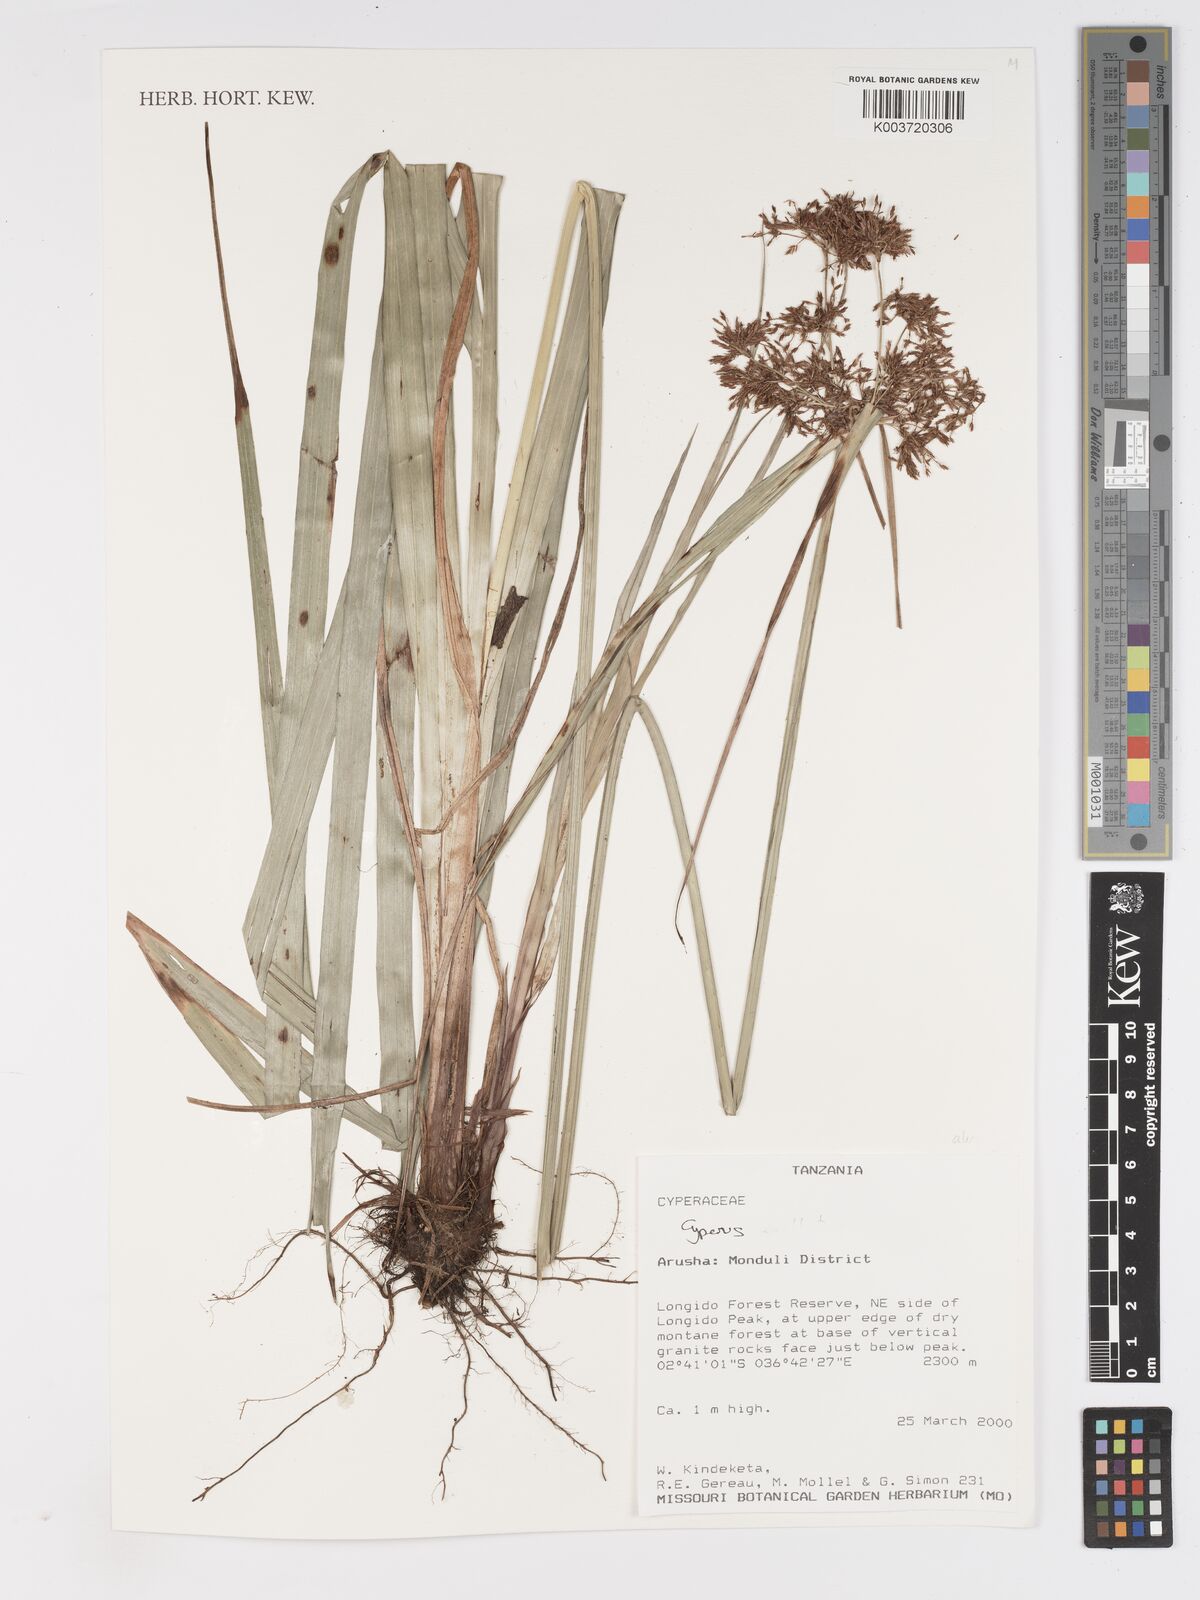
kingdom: Plantae
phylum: Tracheophyta
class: Liliopsida
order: Poales
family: Cyperaceae
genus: Cyperus
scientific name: Cyperus
